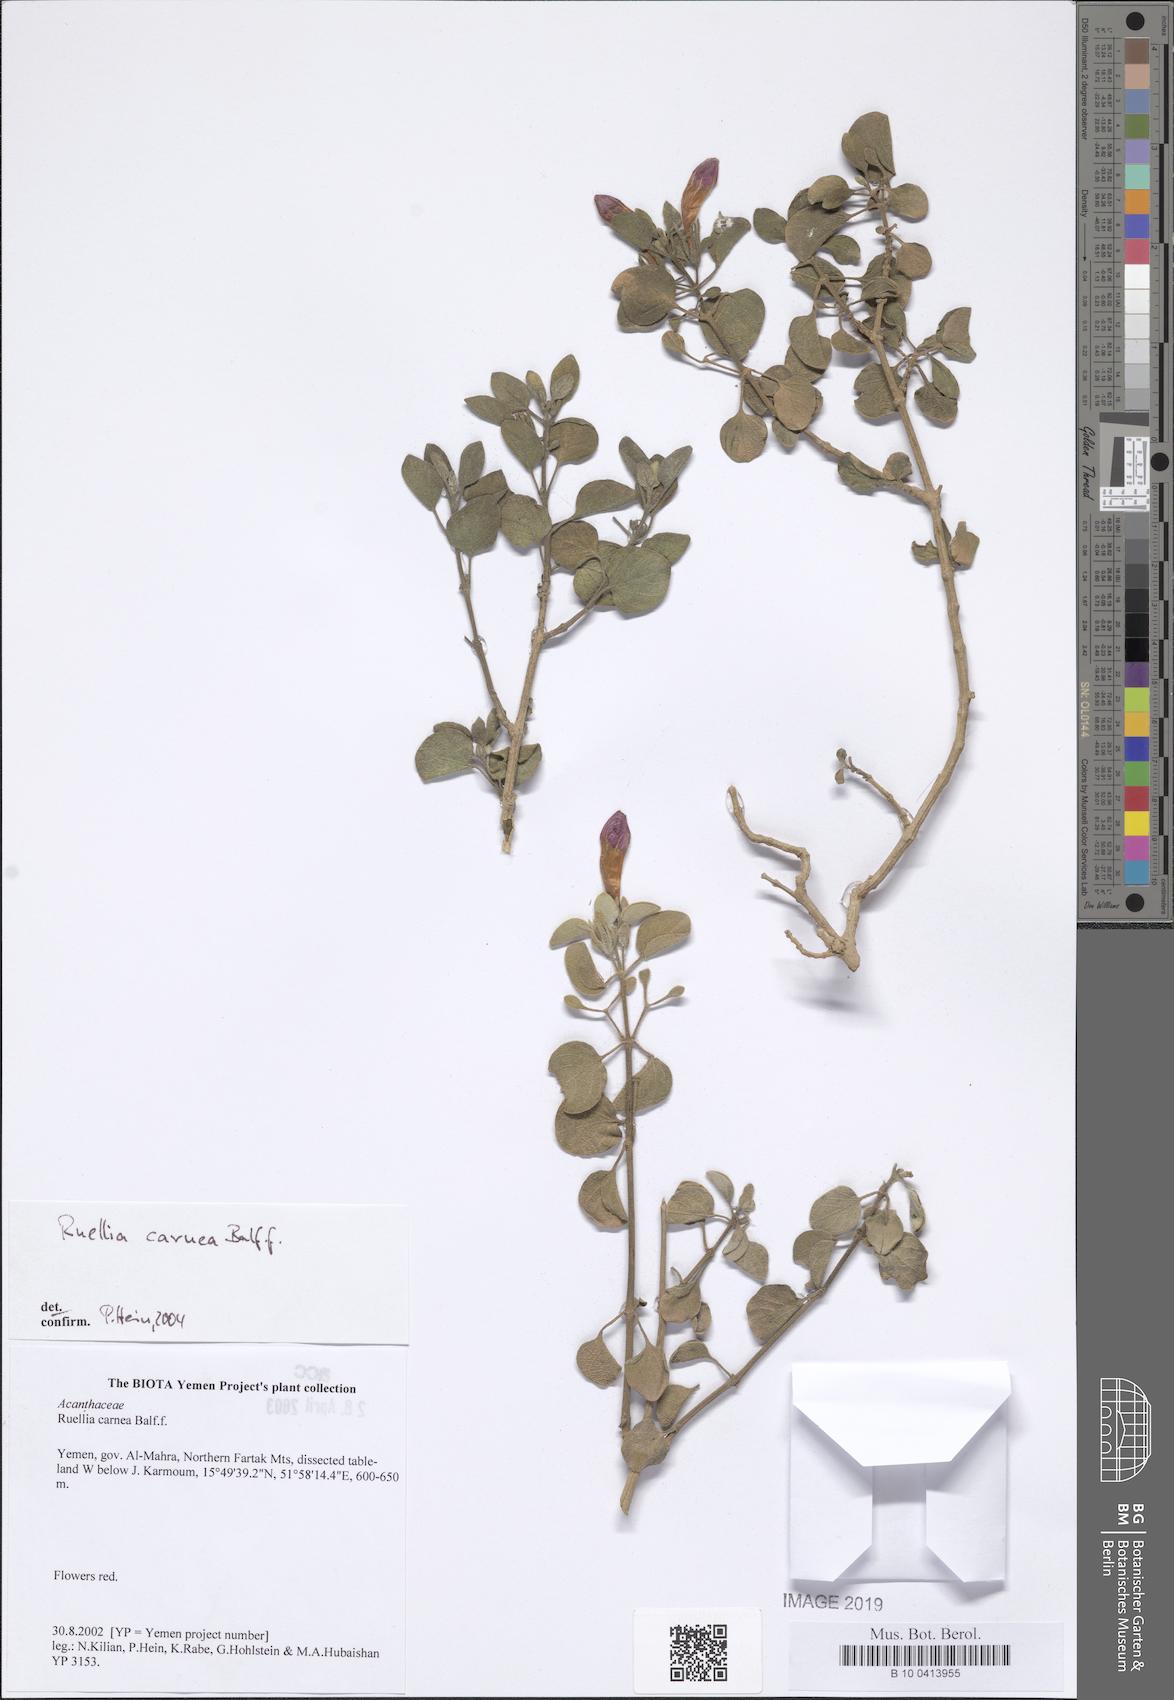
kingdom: Plantae
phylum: Tracheophyta
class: Magnoliopsida
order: Lamiales
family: Acanthaceae
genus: Ruellia
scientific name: Ruellia carnea
